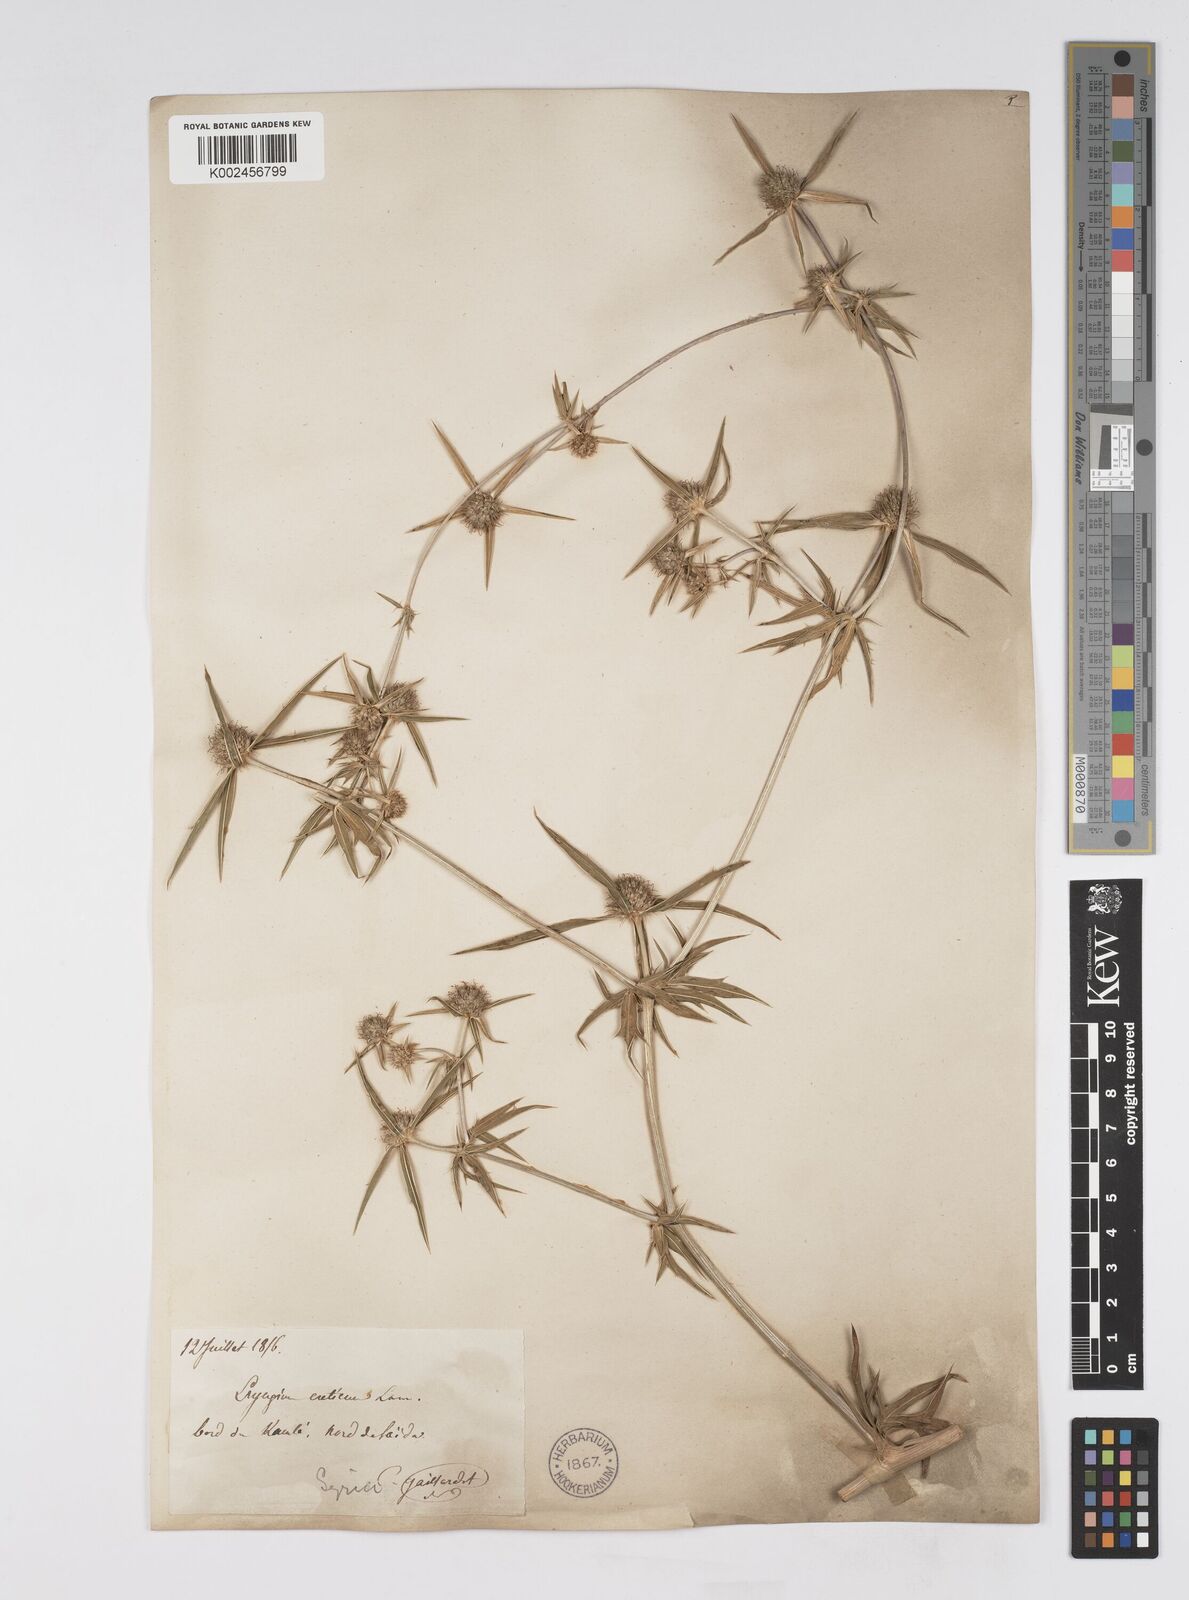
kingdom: Plantae
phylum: Tracheophyta
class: Magnoliopsida
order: Apiales
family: Apiaceae
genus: Eryngium
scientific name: Eryngium creticum
